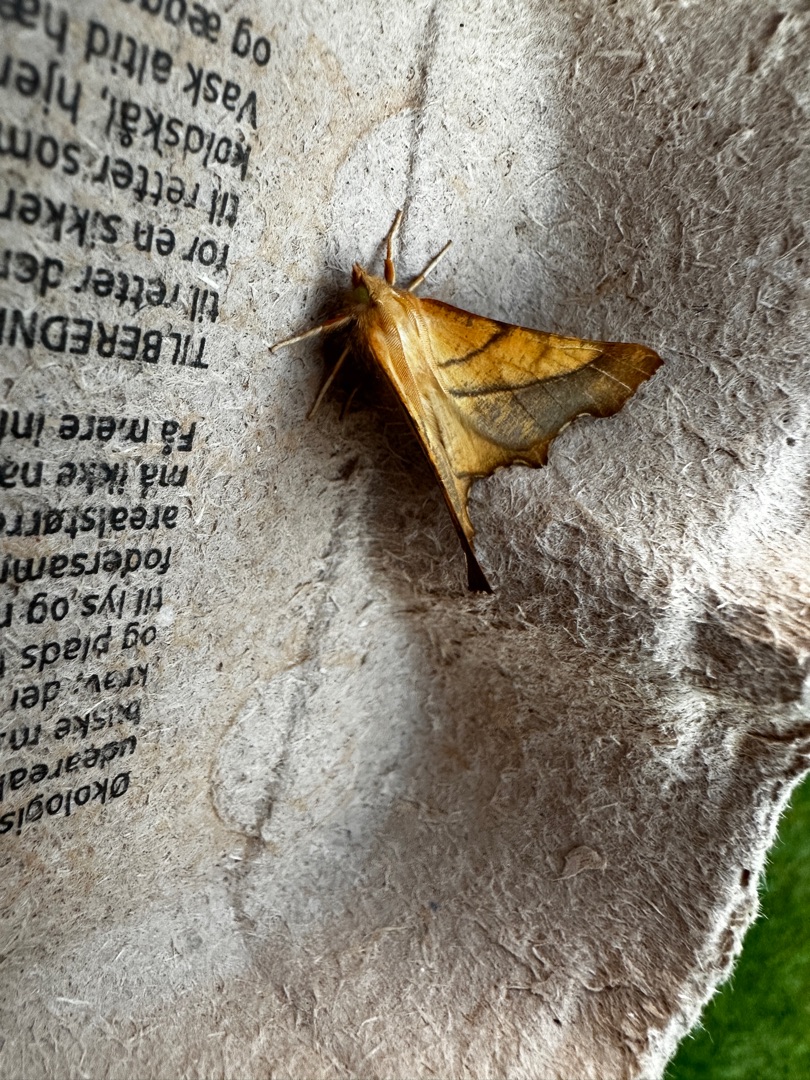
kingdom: Animalia
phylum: Arthropoda
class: Insecta
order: Lepidoptera
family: Geometridae
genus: Ennomos
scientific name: Ennomos fuscantaria
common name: Asketandmåler
